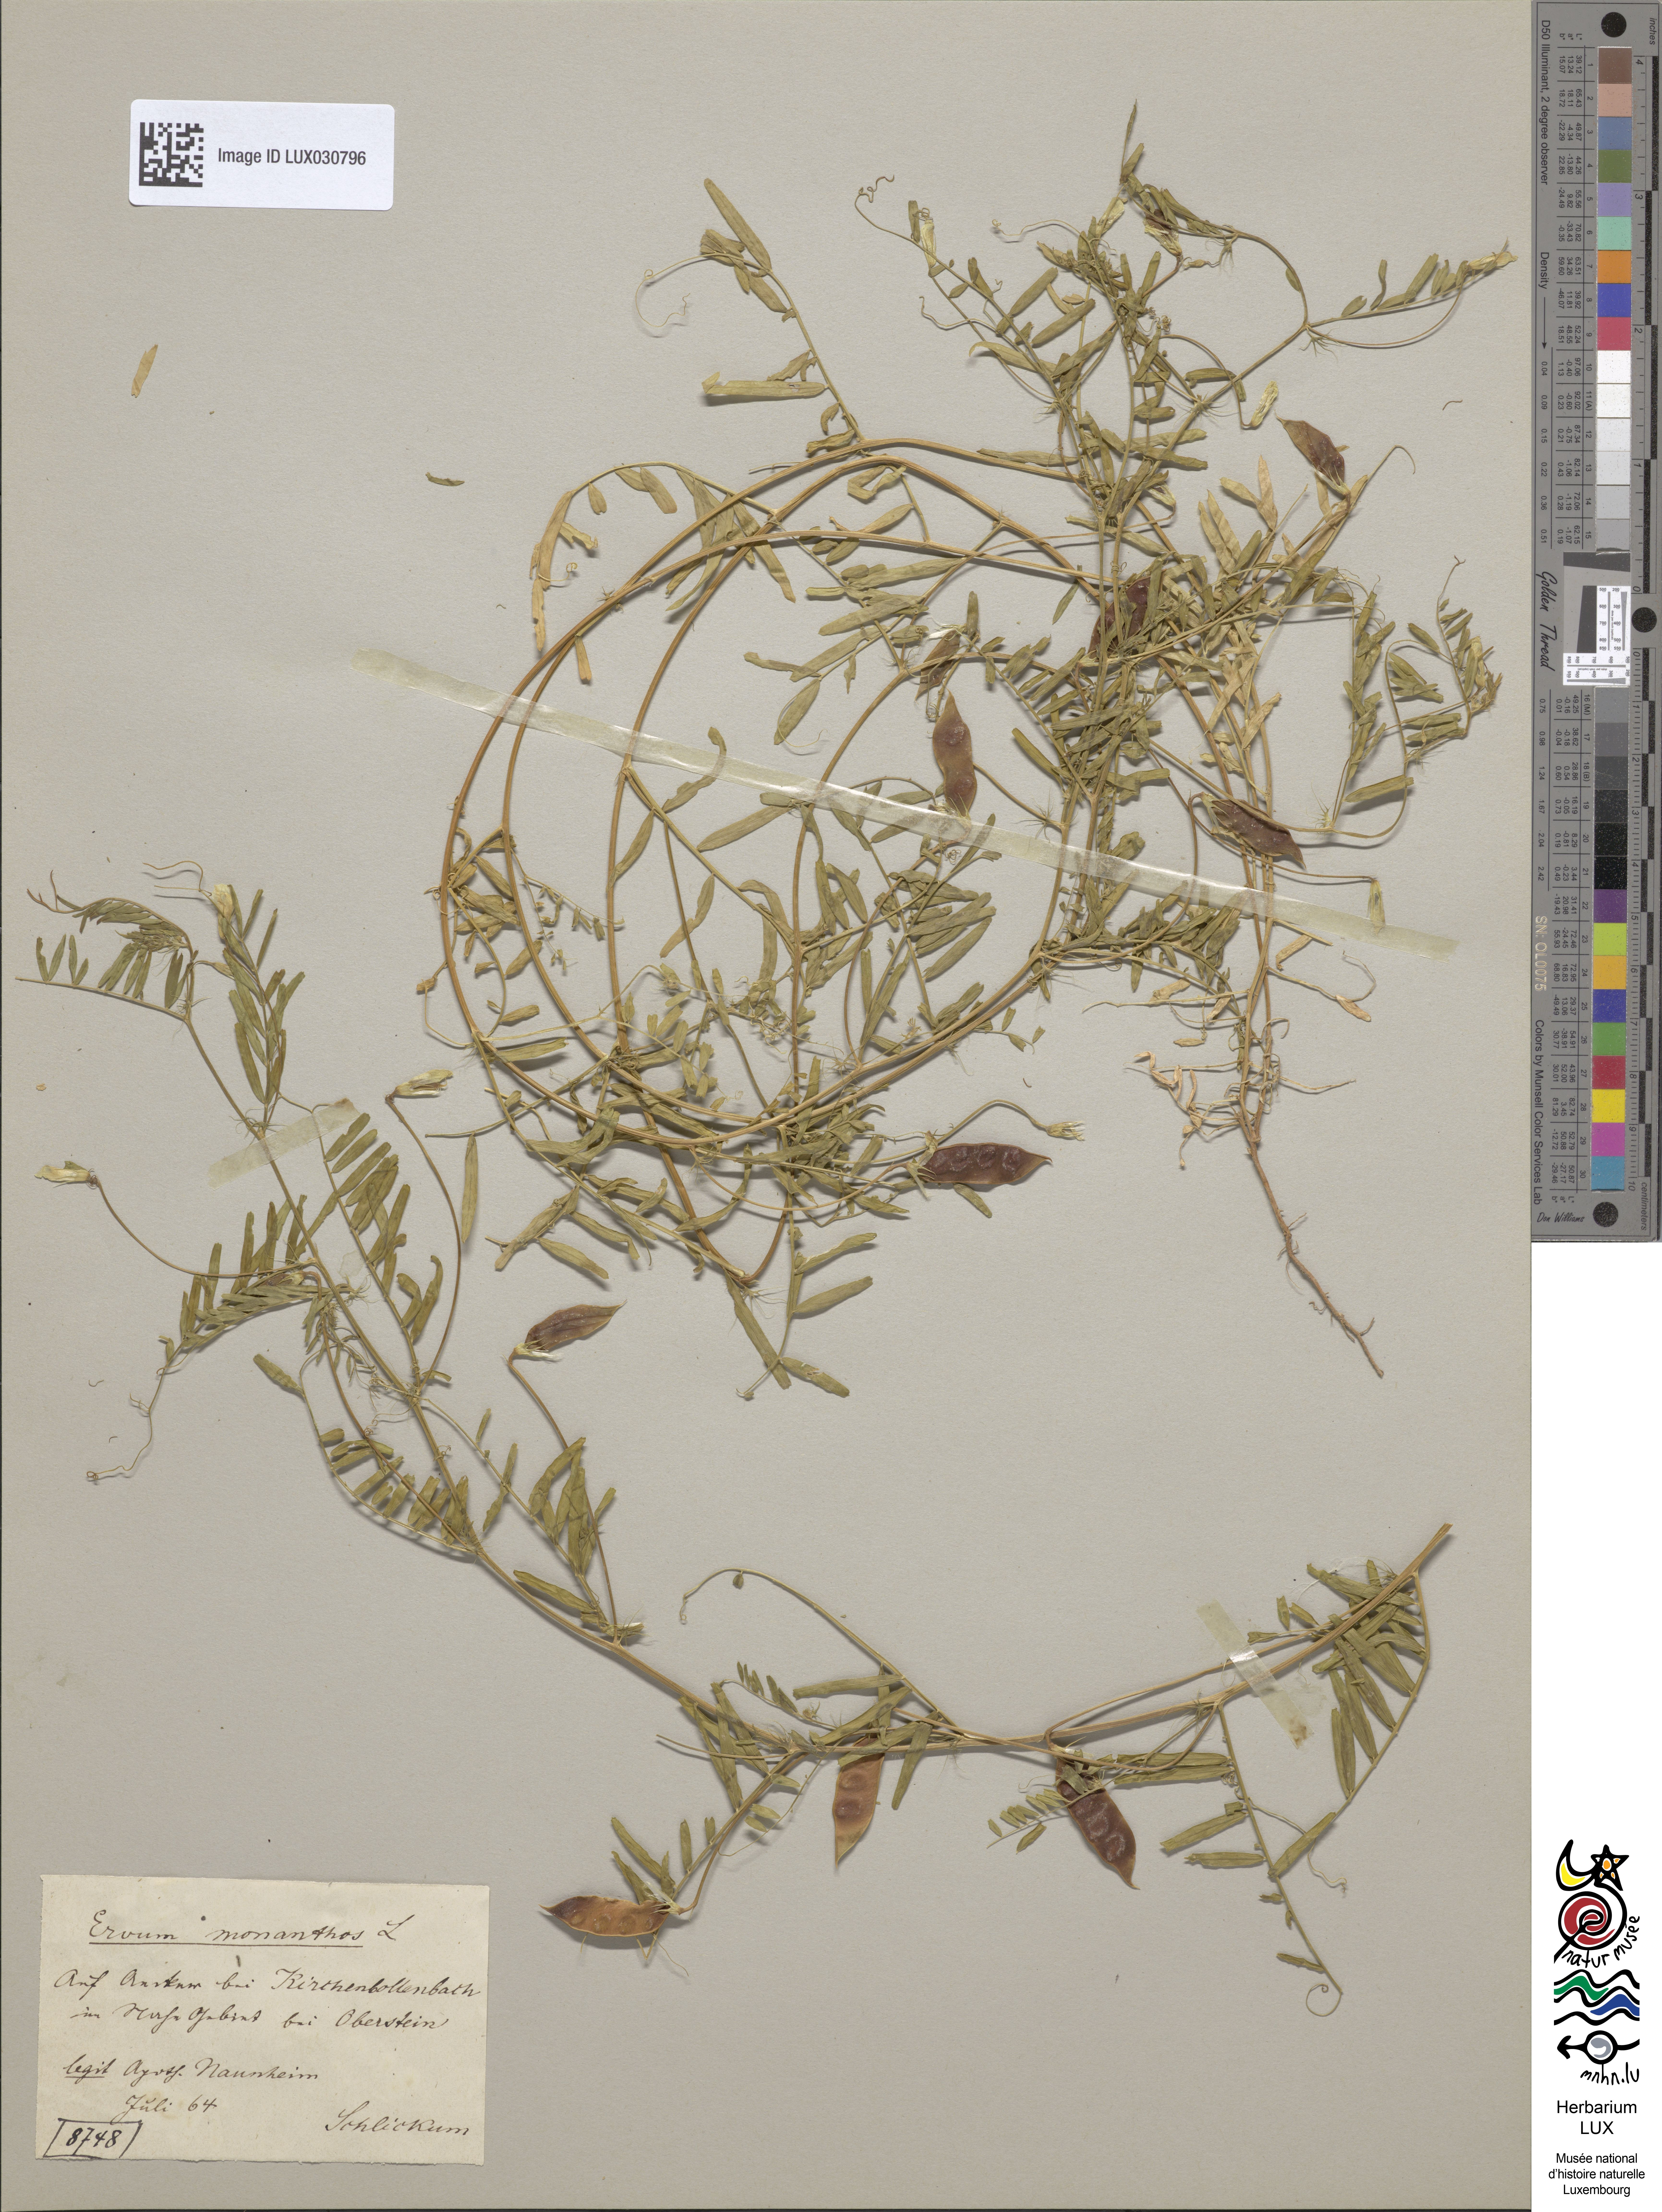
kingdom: Plantae
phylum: Tracheophyta
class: Magnoliopsida
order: Fabales
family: Fabaceae
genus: Vicia
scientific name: Vicia articulata
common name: Monantha vetch
